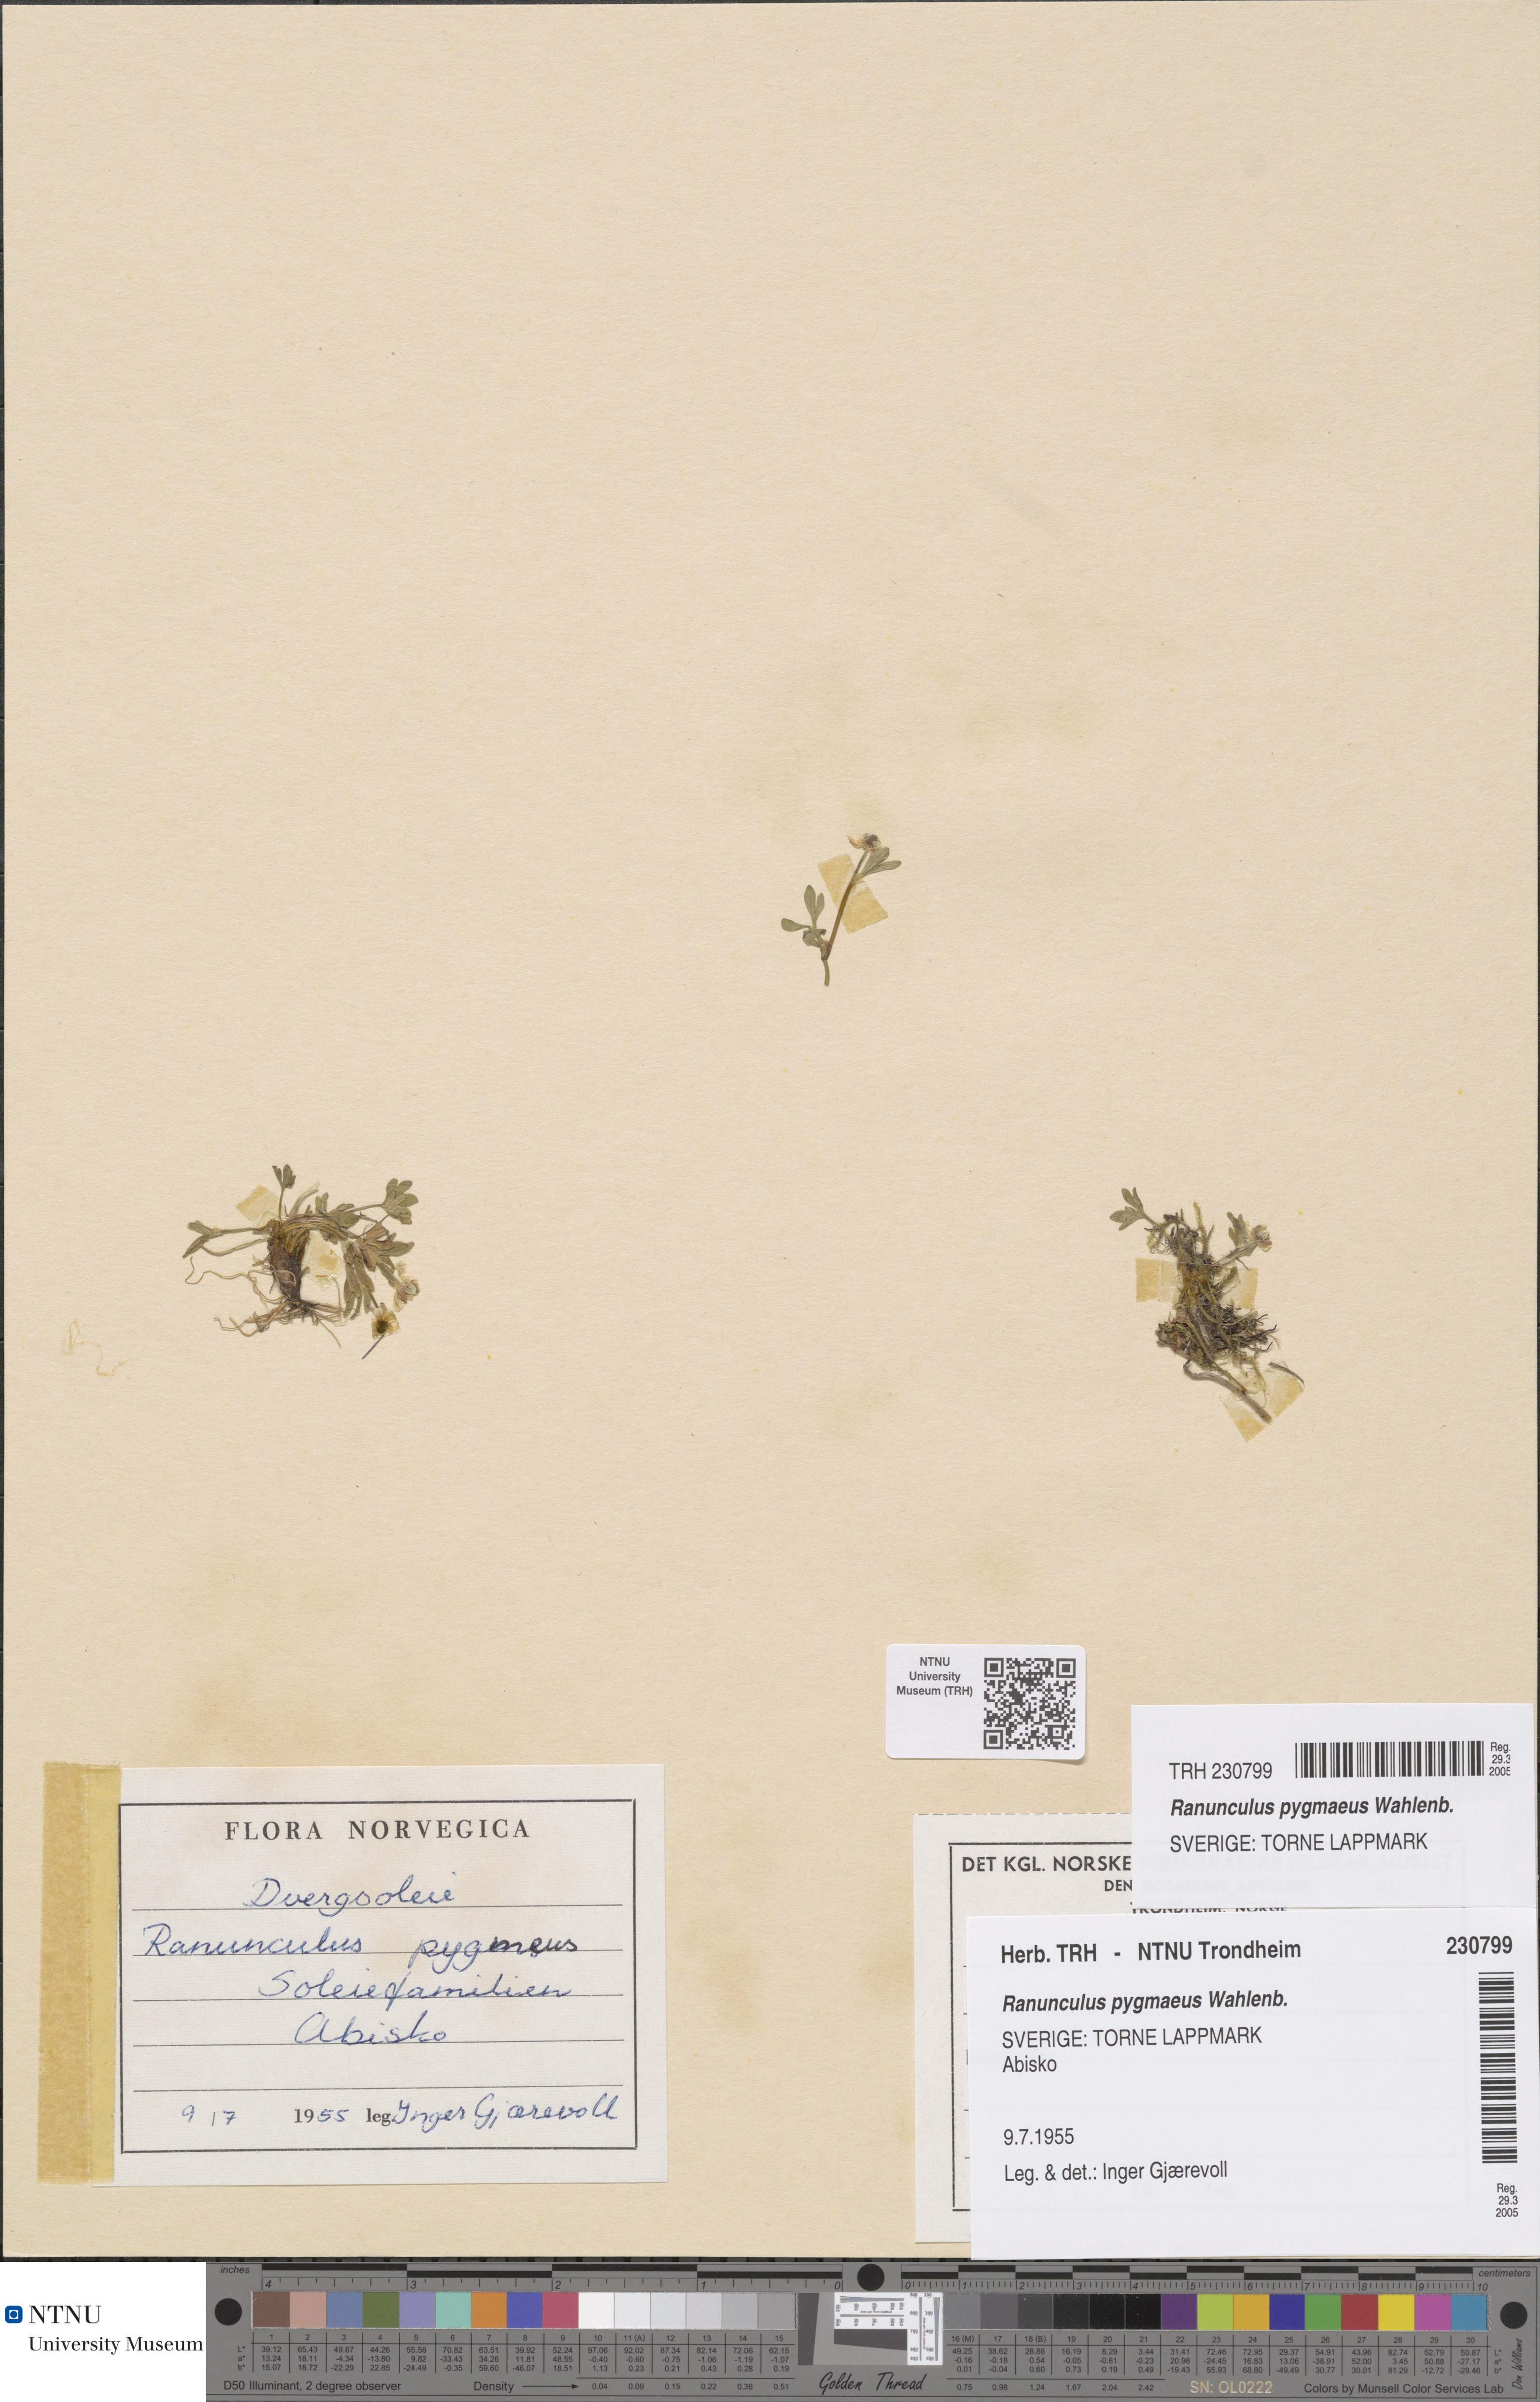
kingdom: Plantae
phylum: Tracheophyta
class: Magnoliopsida
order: Ranunculales
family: Ranunculaceae
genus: Ranunculus
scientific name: Ranunculus pygmaeus
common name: Dwarf buttercup
